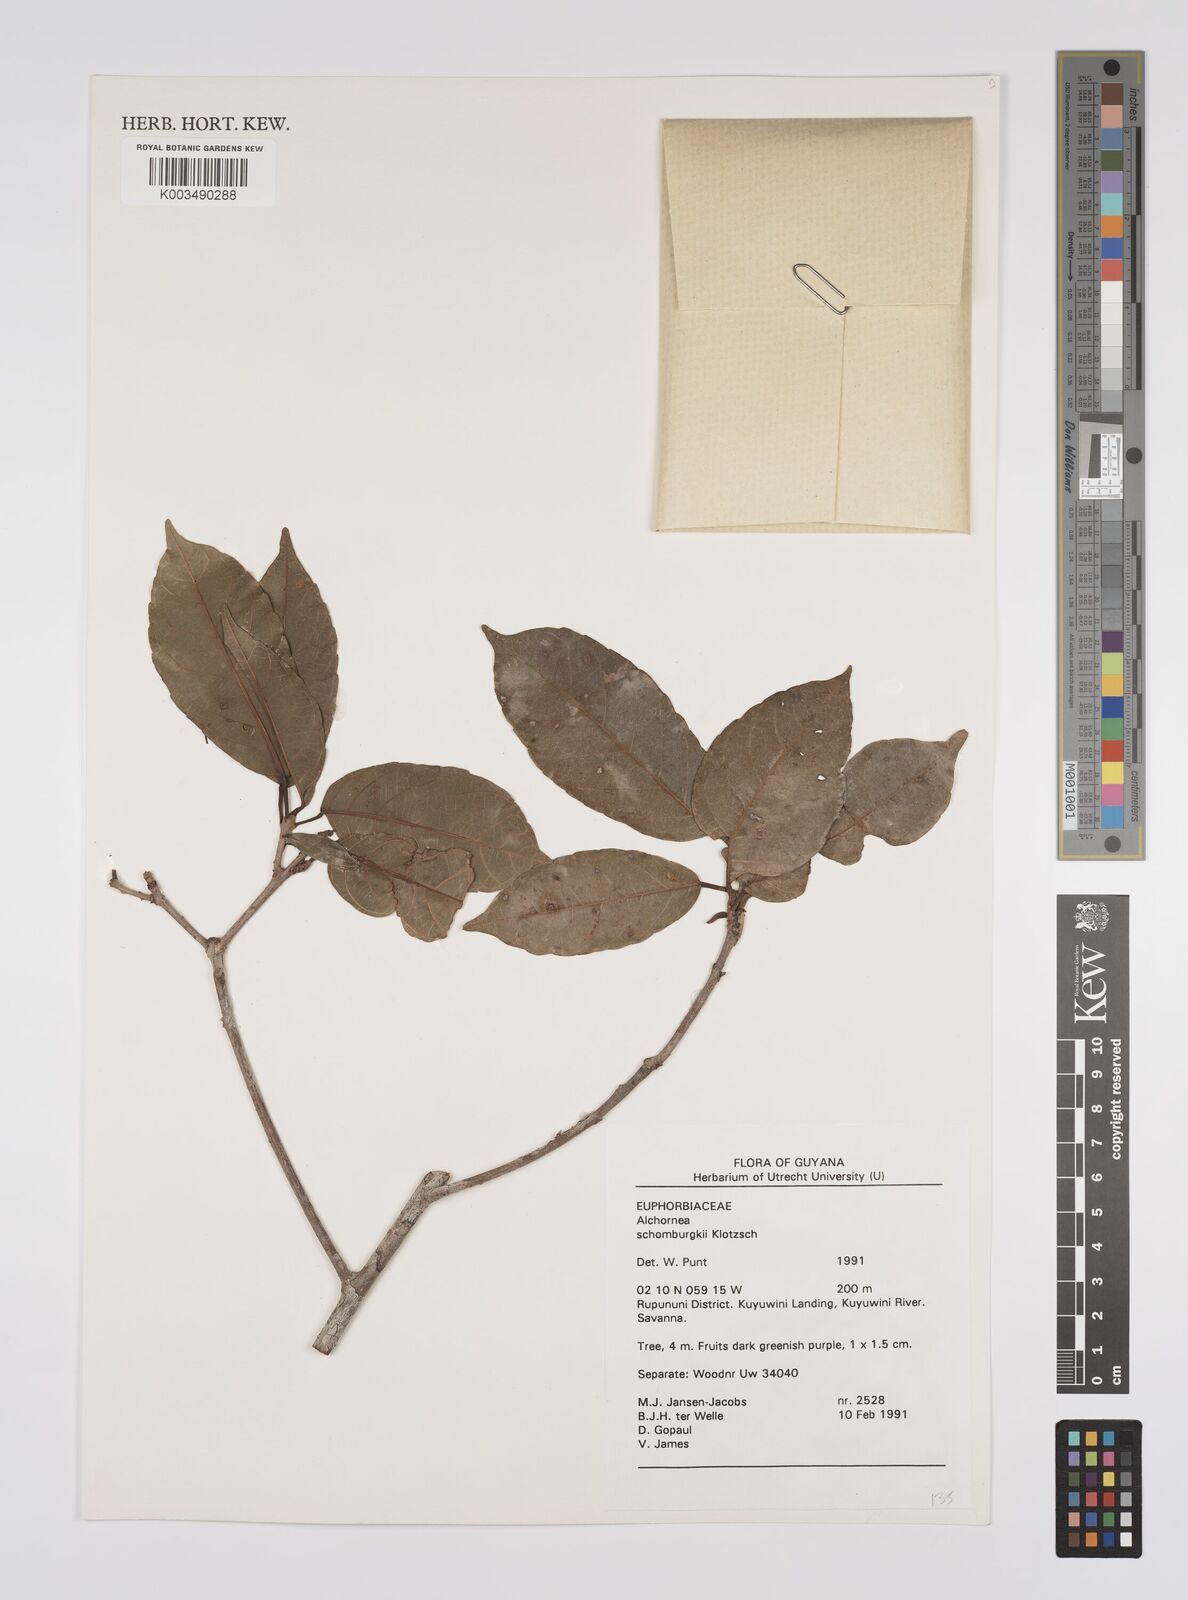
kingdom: Plantae
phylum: Tracheophyta
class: Magnoliopsida
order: Malpighiales
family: Euphorbiaceae
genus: Alchornea
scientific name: Alchornea discolor
